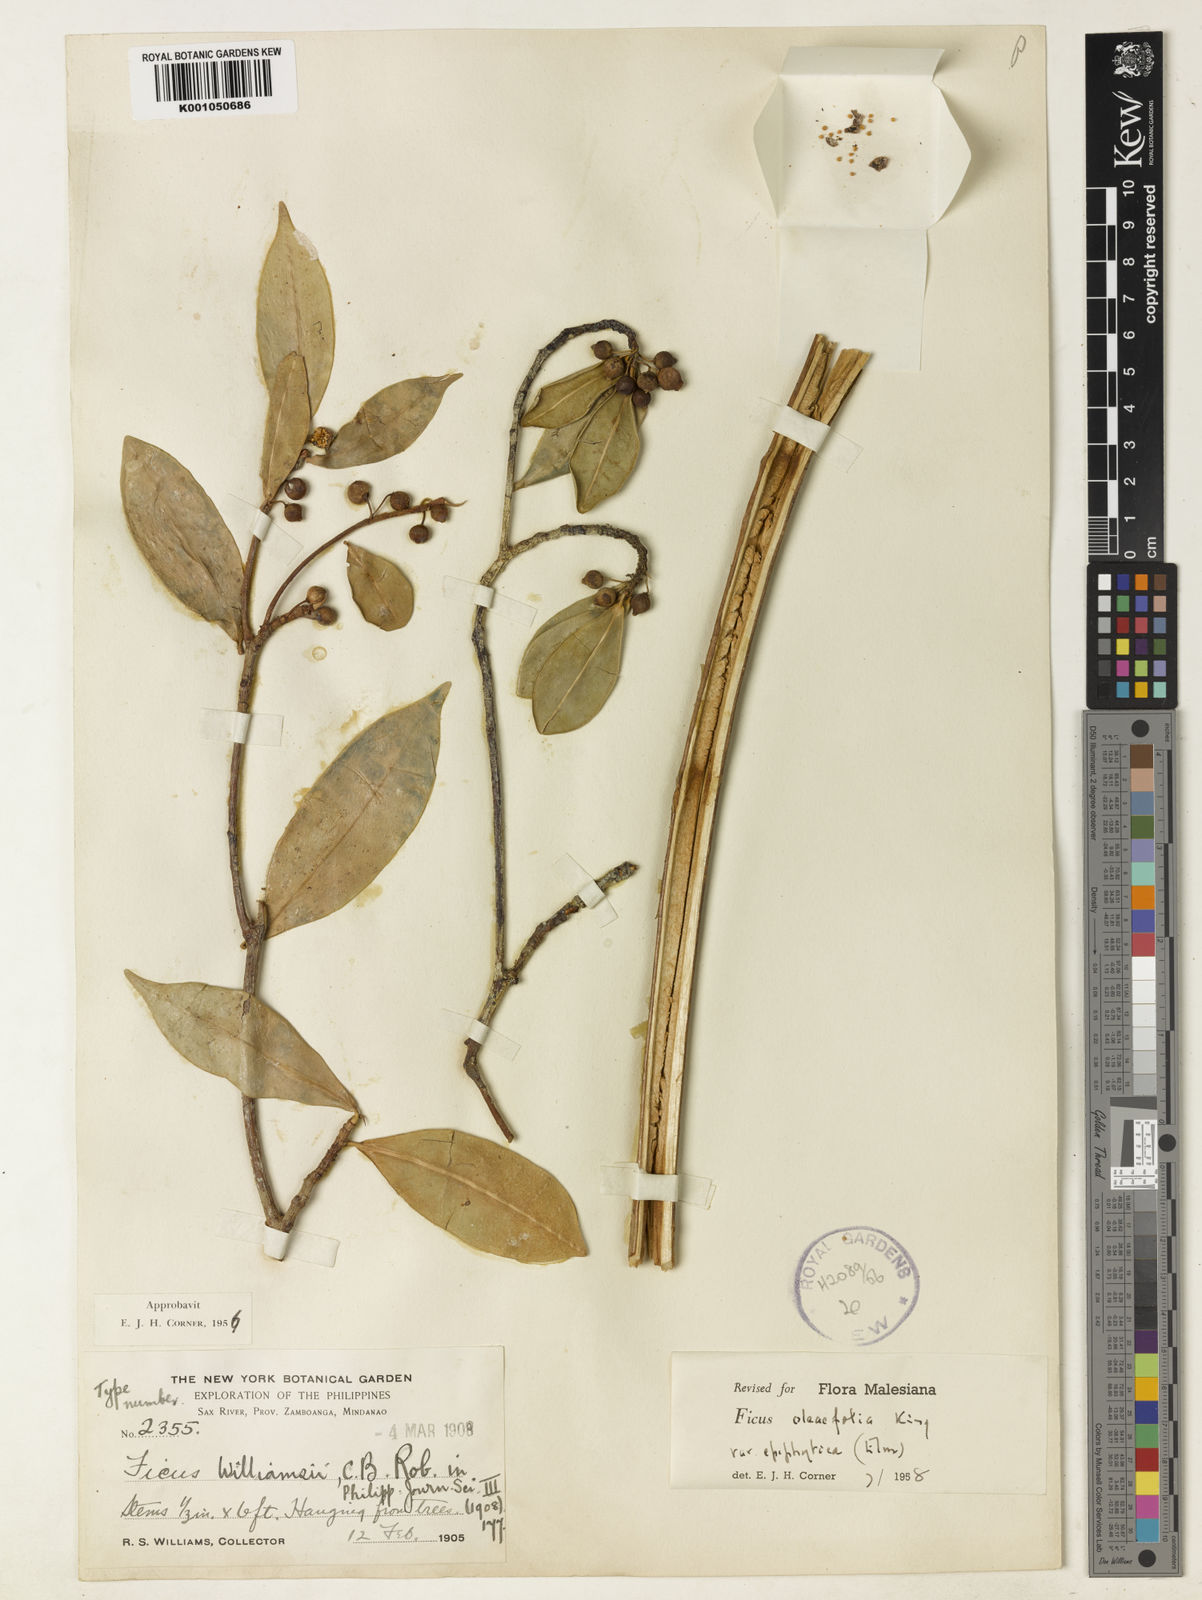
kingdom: Plantae
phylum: Tracheophyta
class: Magnoliopsida
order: Rosales
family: Moraceae
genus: Ficus
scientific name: Ficus oleifolia
